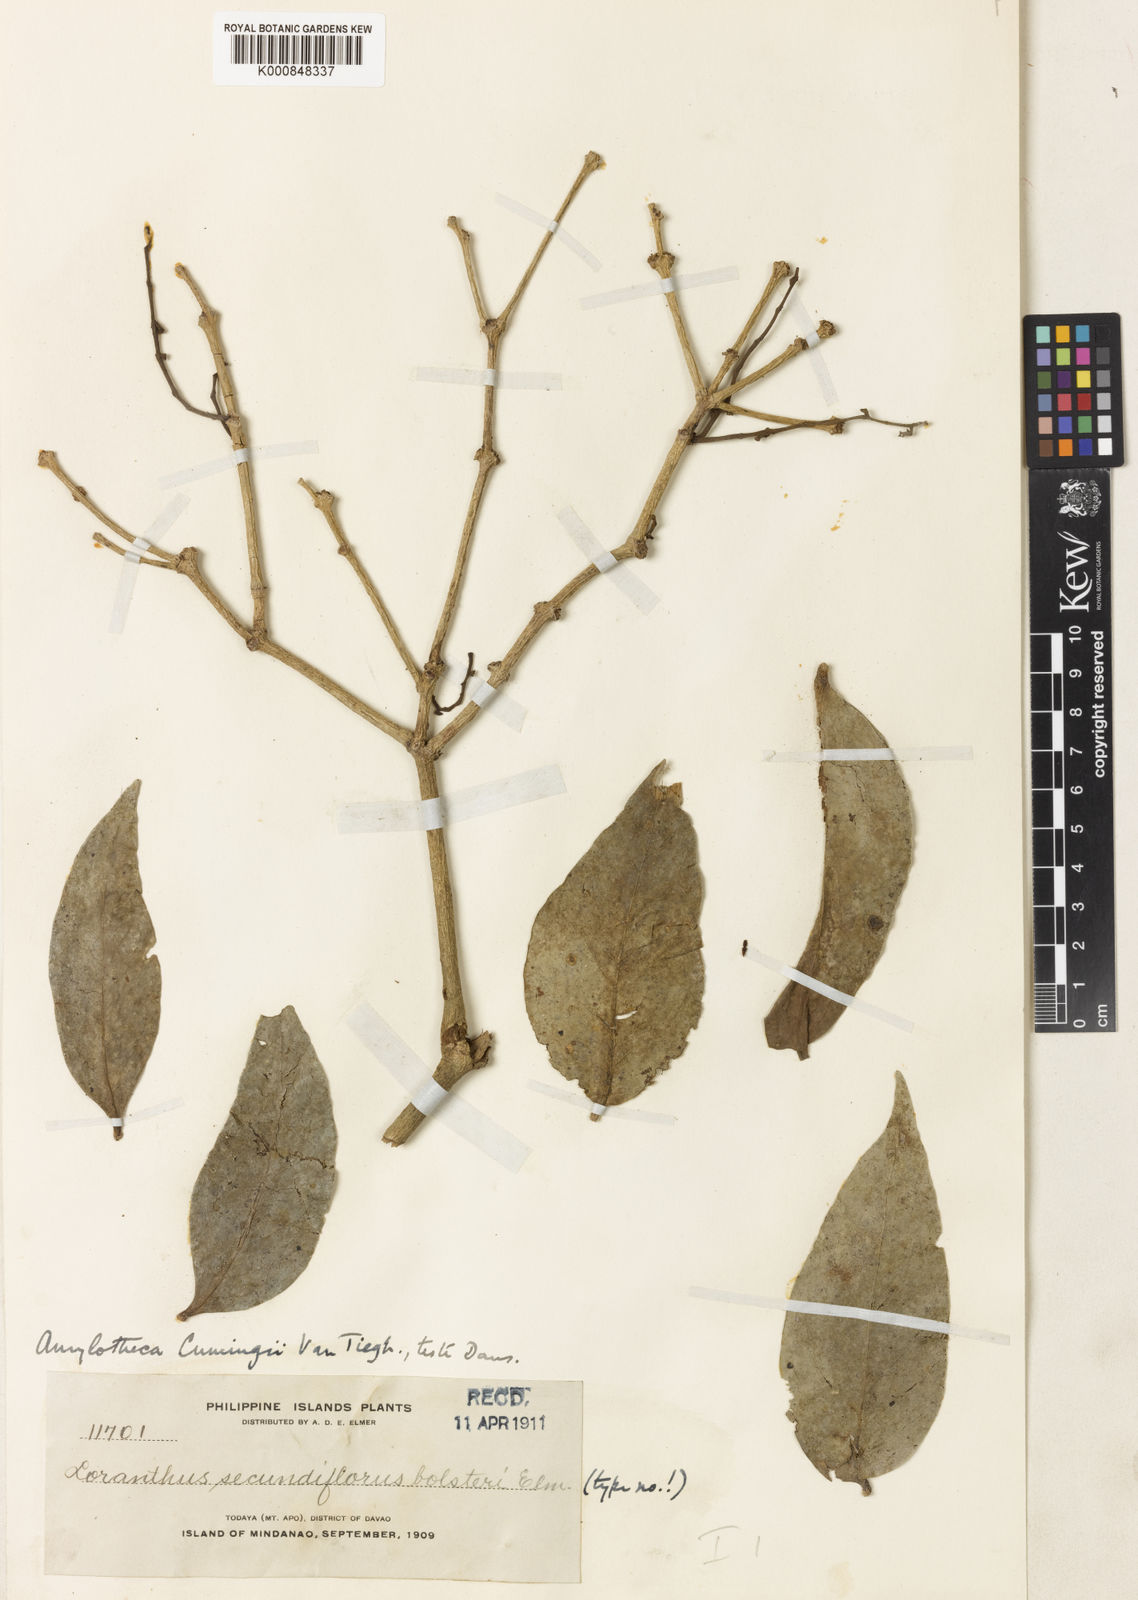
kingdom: Plantae
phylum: Tracheophyta
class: Magnoliopsida
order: Santalales
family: Loranthaceae
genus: Amylotheca
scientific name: Amylotheca
